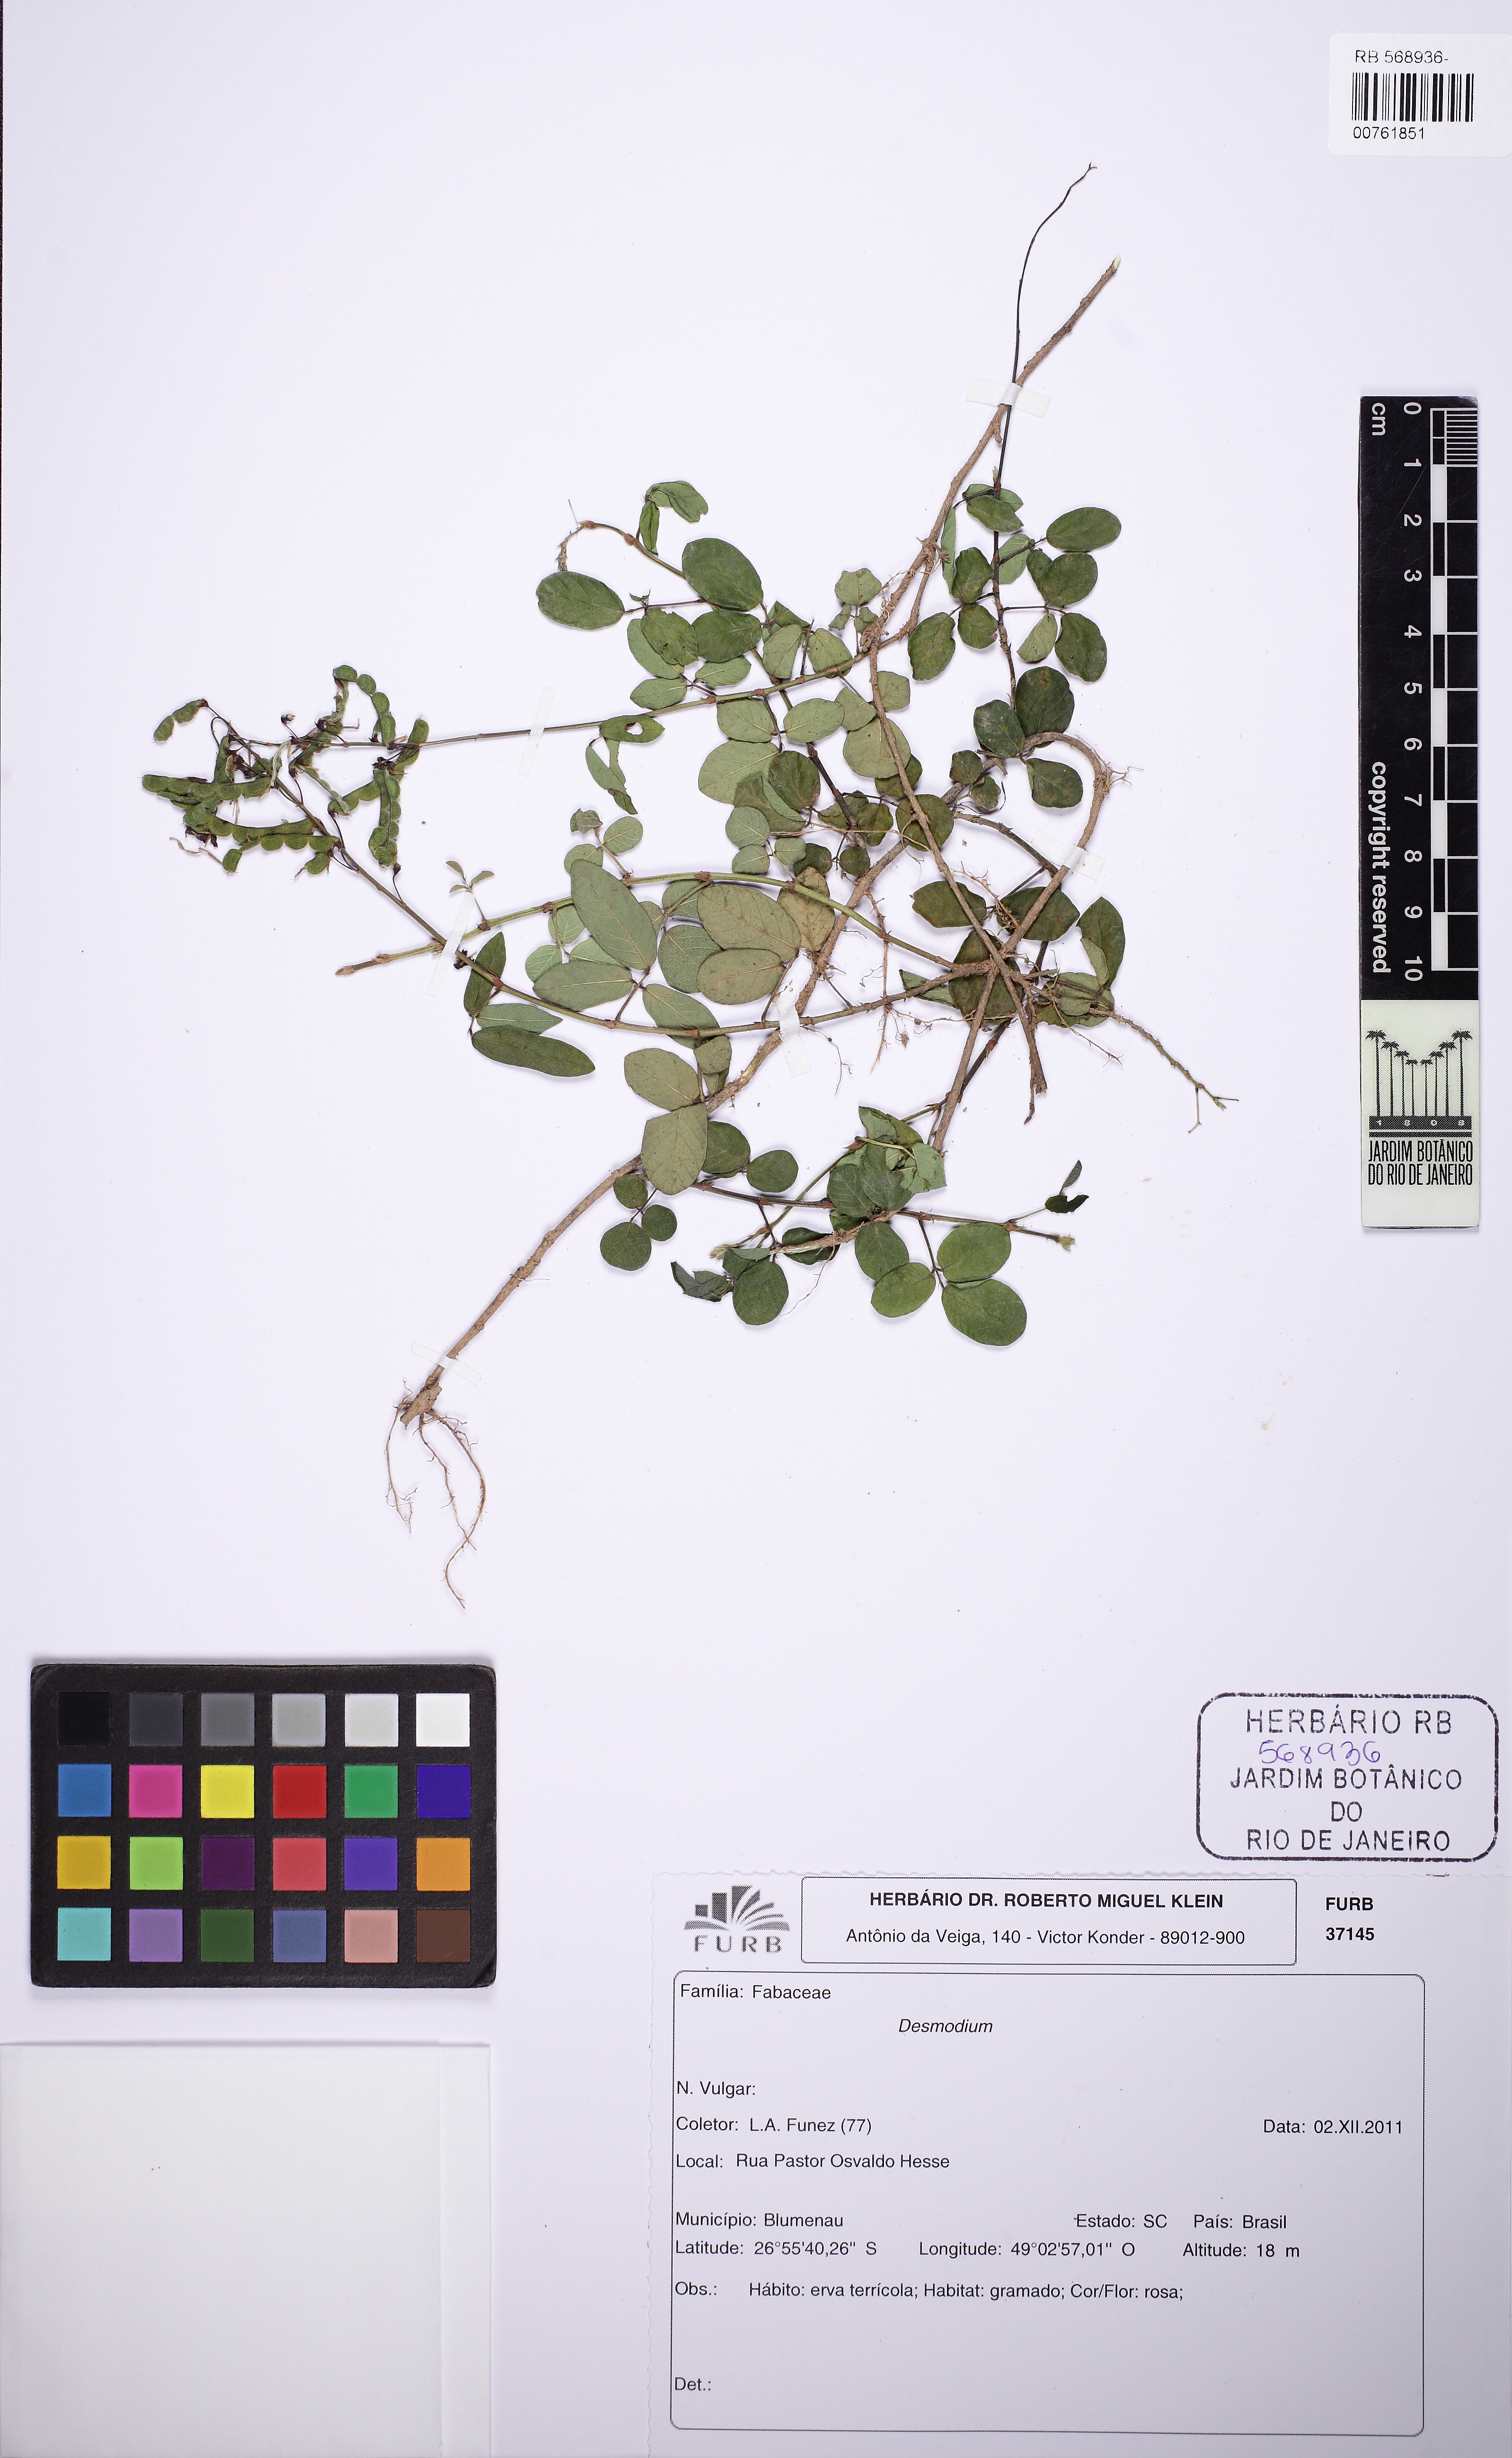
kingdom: Plantae
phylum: Tracheophyta
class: Magnoliopsida
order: Fabales
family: Fabaceae
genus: Desmodium
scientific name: Desmodium incanum
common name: Tickclover
